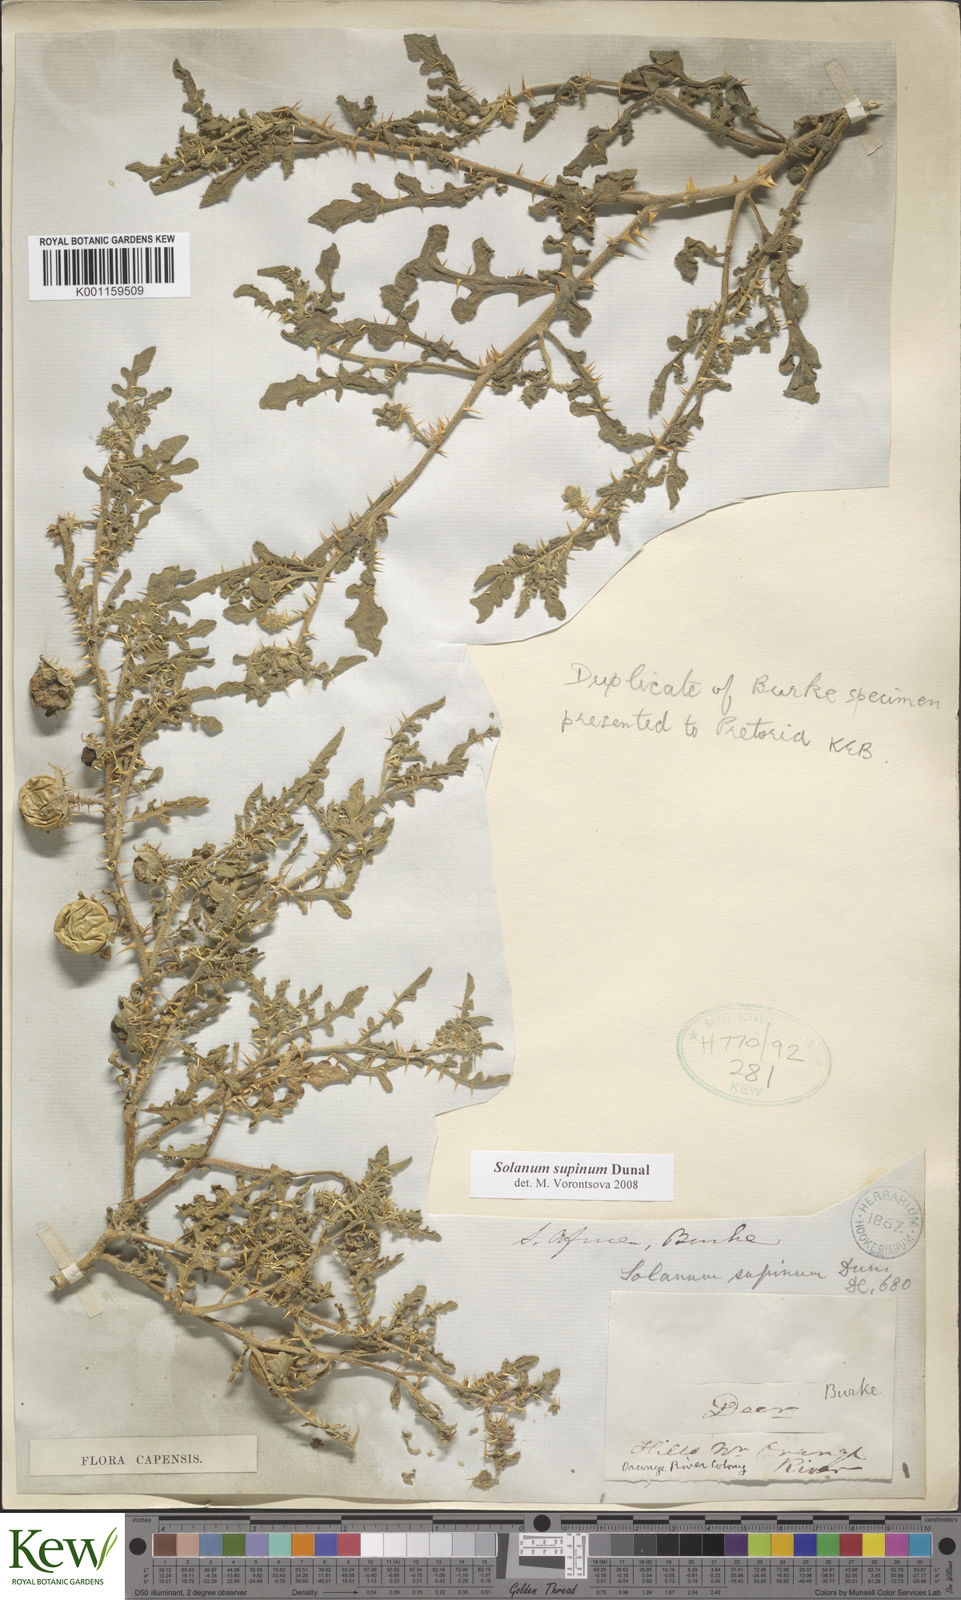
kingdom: Plantae
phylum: Tracheophyta
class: Magnoliopsida
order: Solanales
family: Solanaceae
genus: Solanum
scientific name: Solanum supinum
